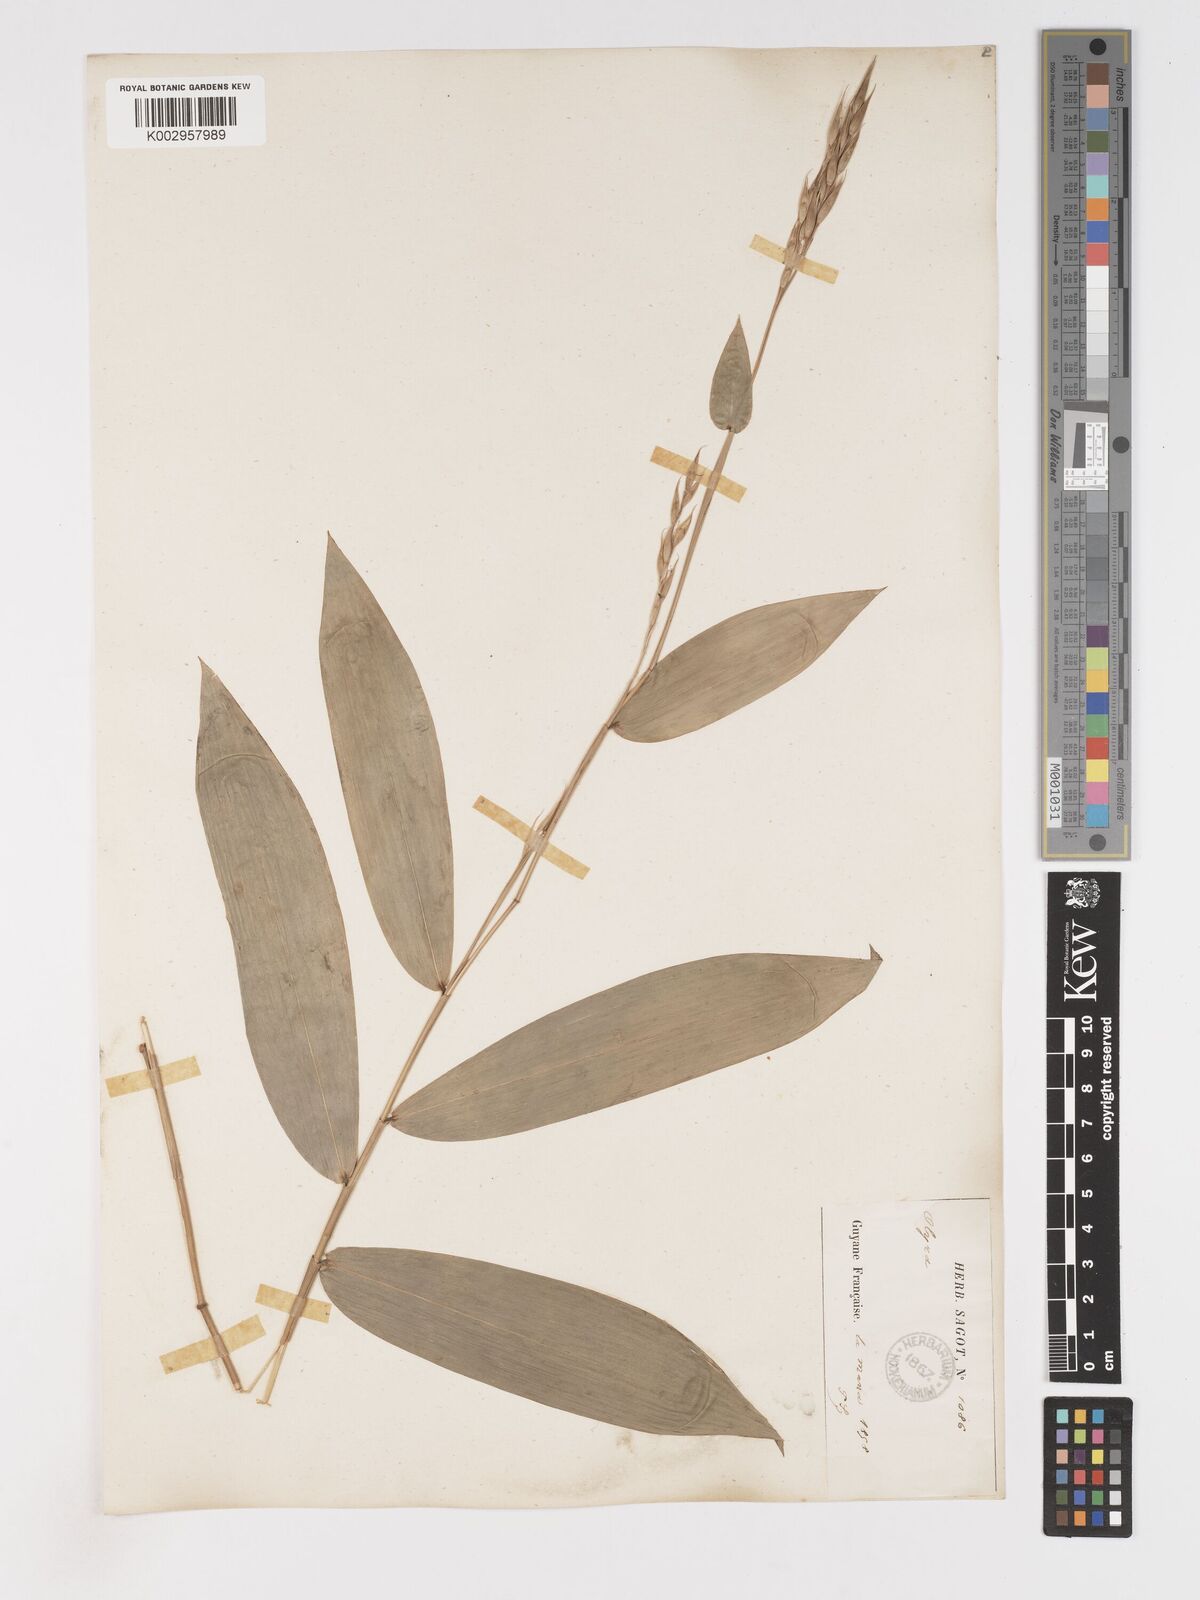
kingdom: Plantae
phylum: Tracheophyta
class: Liliopsida
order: Poales
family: Poaceae
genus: Olyra
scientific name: Olyra longifolia
